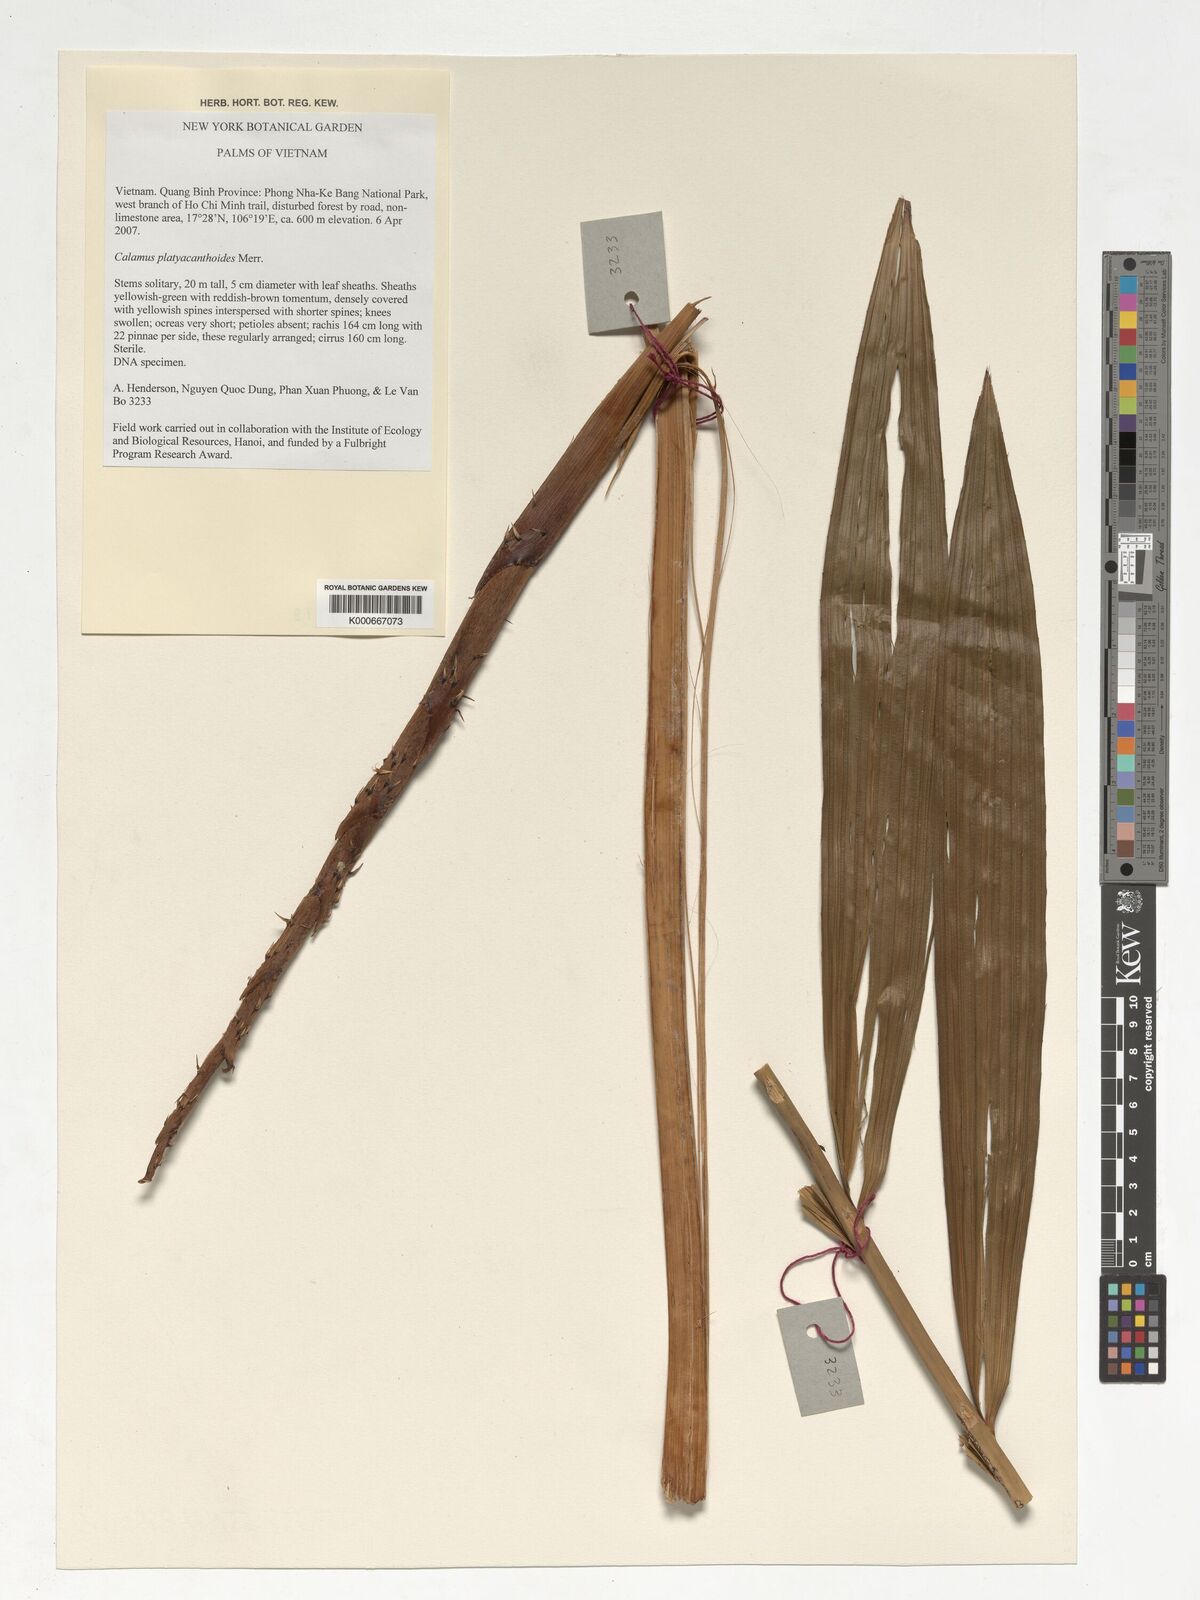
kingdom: Plantae
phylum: Tracheophyta
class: Liliopsida
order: Arecales
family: Arecaceae
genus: Calamus
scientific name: Calamus inermis
